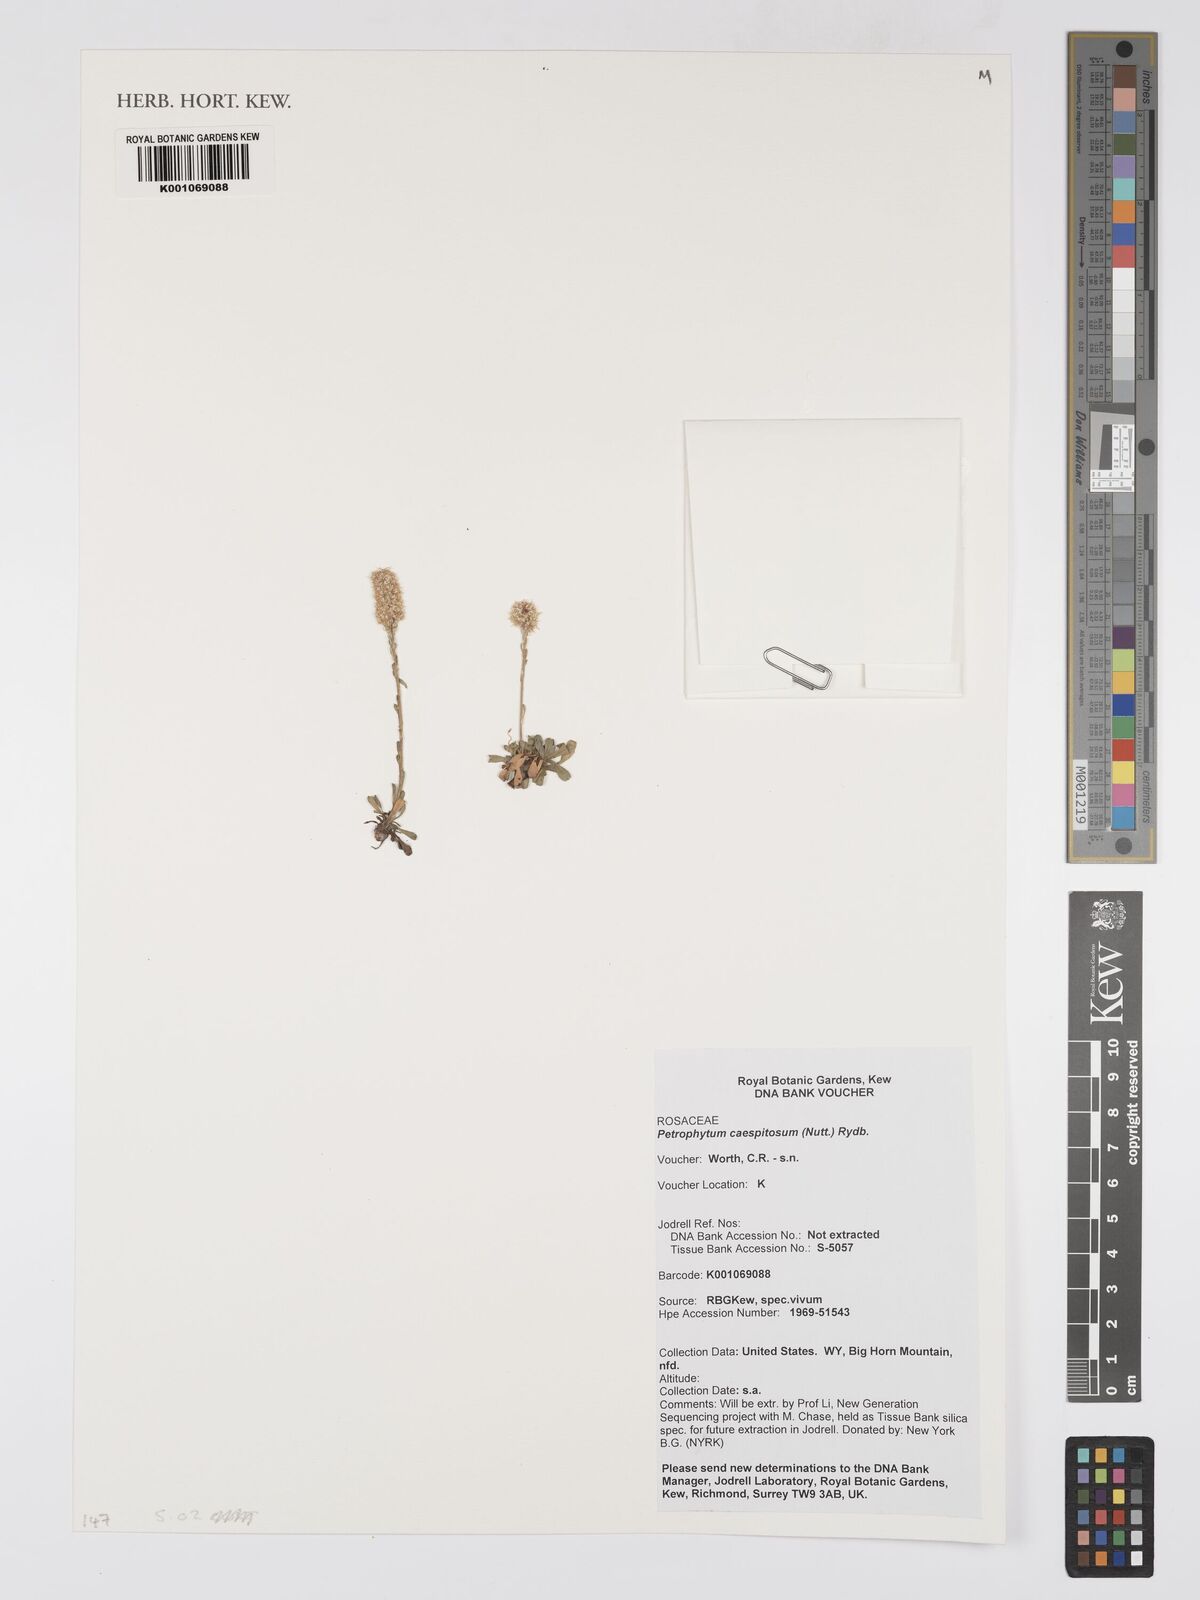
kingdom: Plantae
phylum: Tracheophyta
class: Magnoliopsida
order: Rosales
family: Rosaceae
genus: Petrophytum
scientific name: Petrophytum caespitosum
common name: Mat rockspirea
